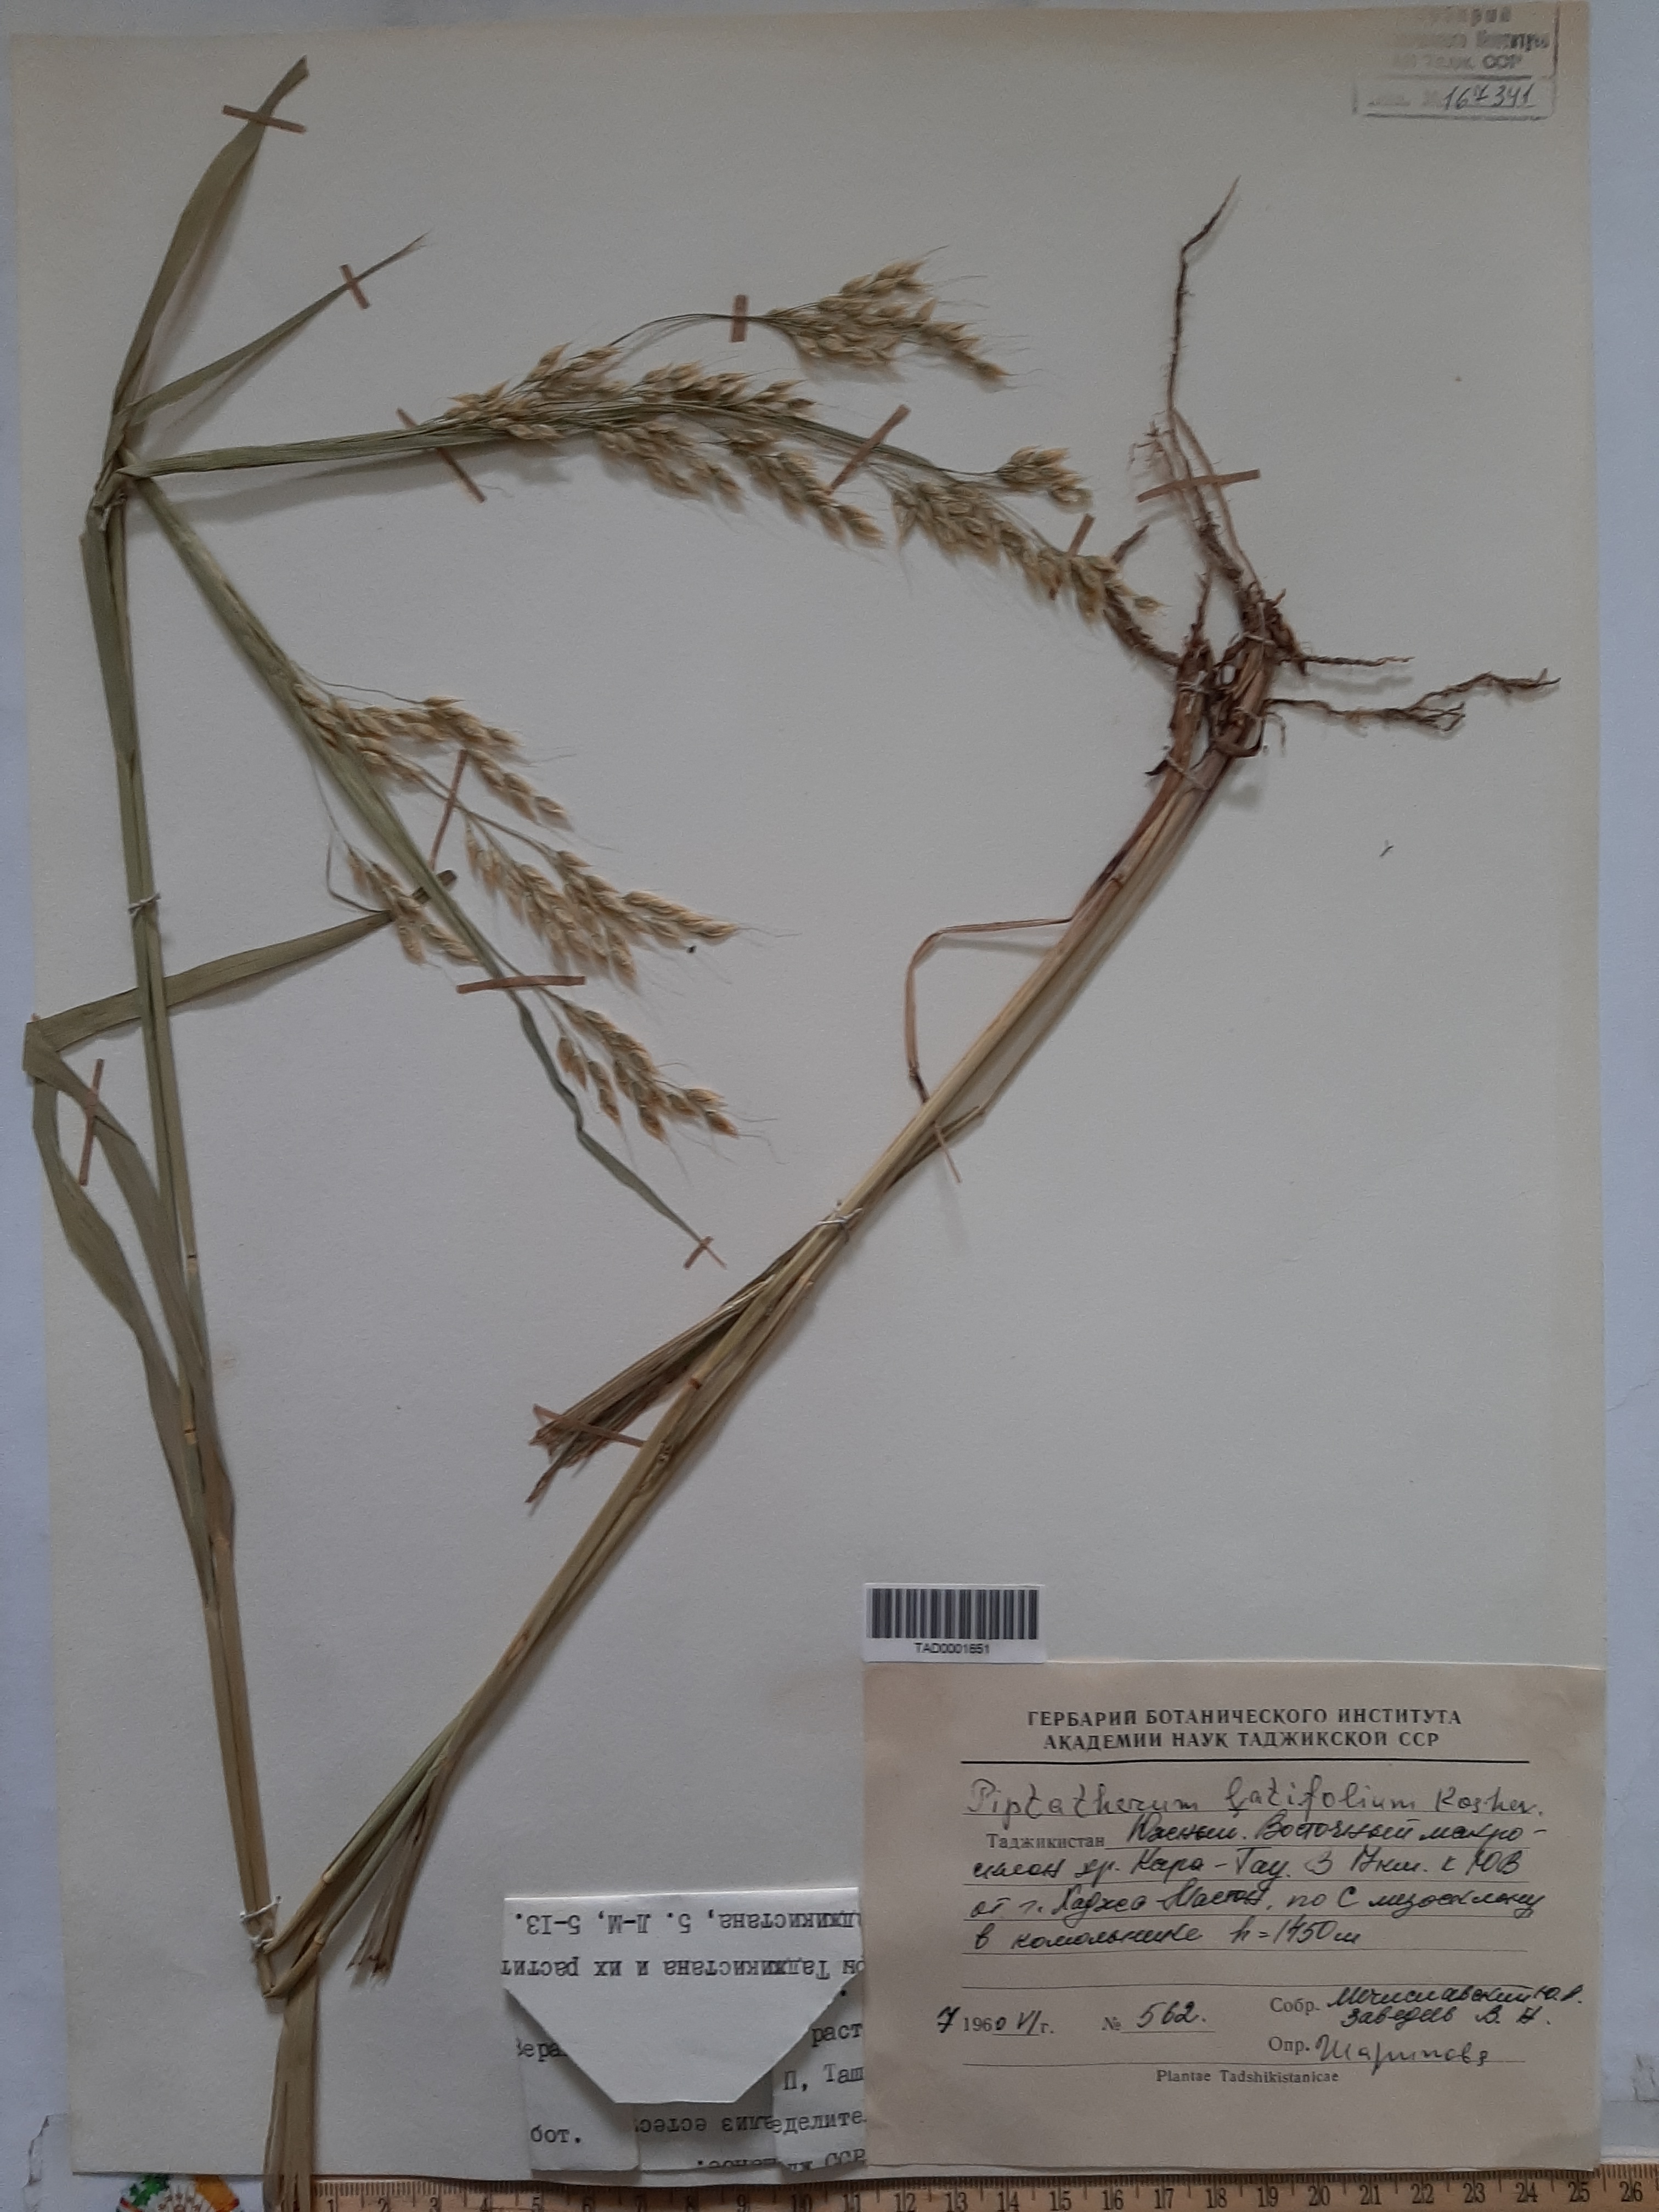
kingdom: Plantae
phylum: Tracheophyta
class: Liliopsida
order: Poales
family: Poaceae
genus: Piptatherum
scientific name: Piptatherum latifolium
